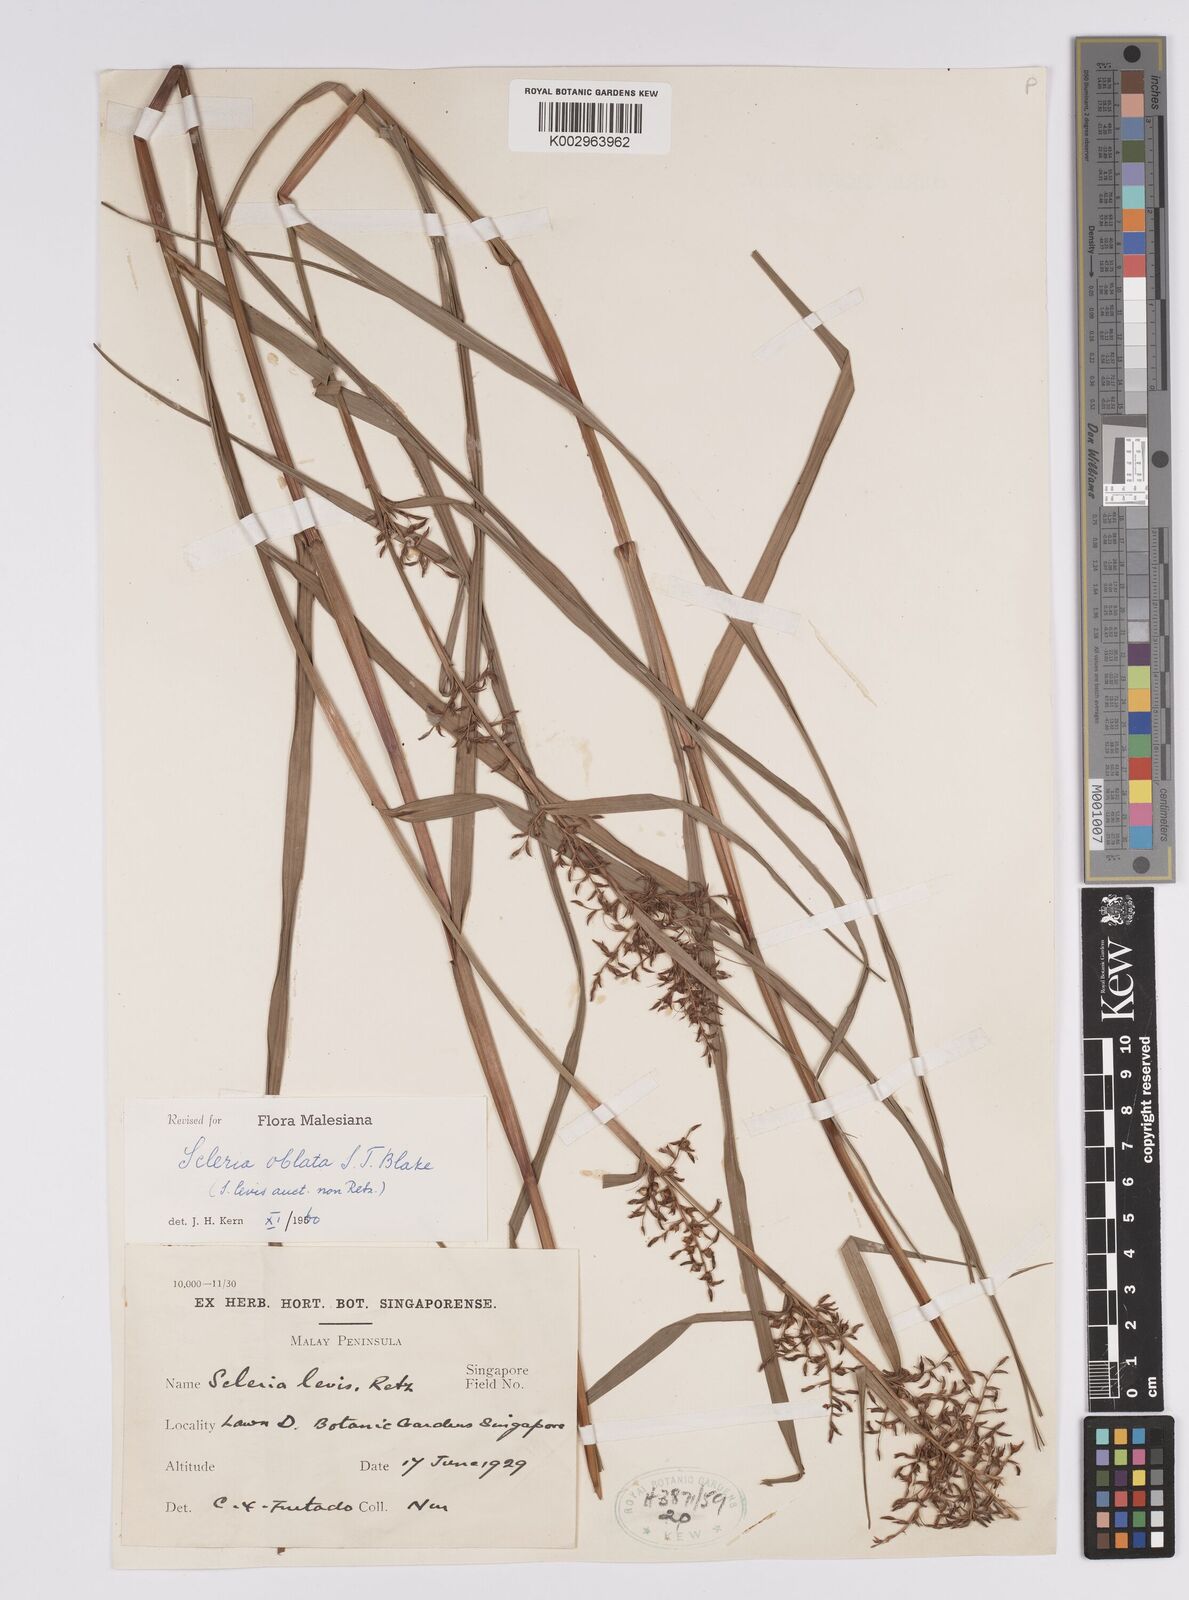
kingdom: Plantae
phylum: Tracheophyta
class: Liliopsida
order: Poales
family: Cyperaceae
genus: Scleria
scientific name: Scleria oblata
